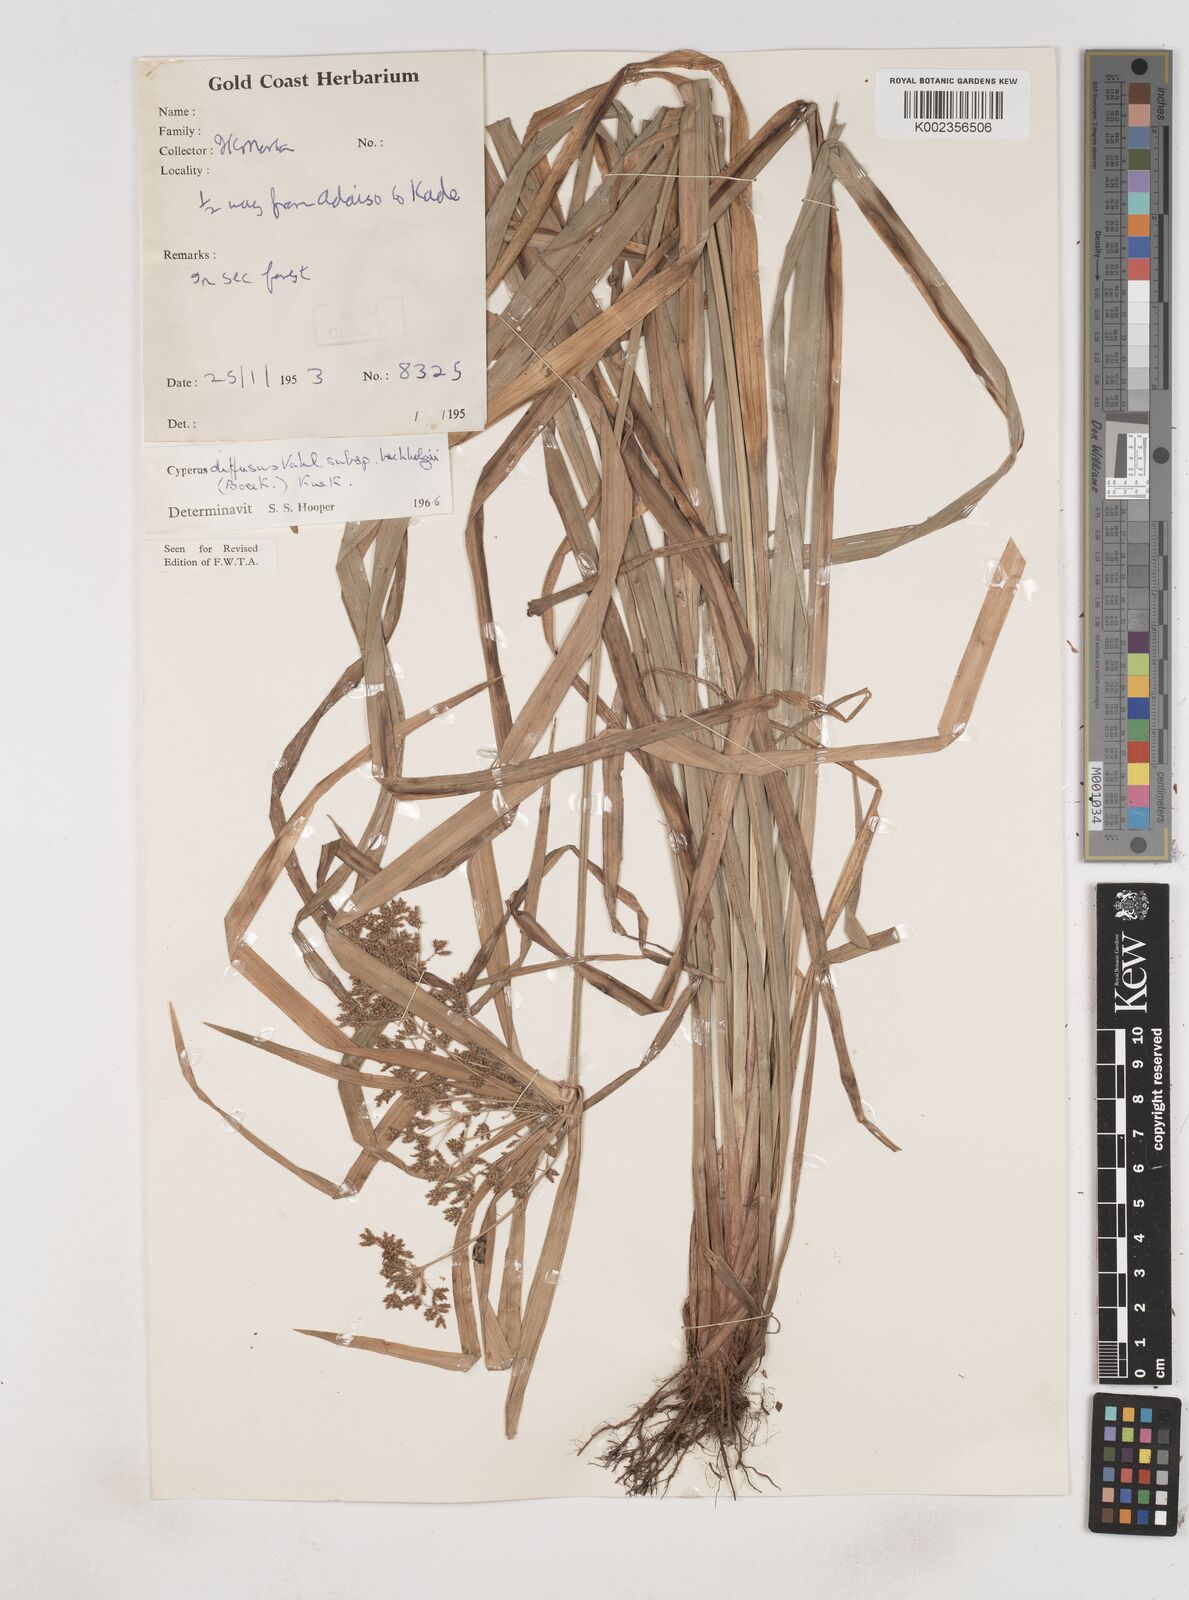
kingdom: Plantae
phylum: Tracheophyta
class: Liliopsida
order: Poales
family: Cyperaceae
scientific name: Cyperaceae
